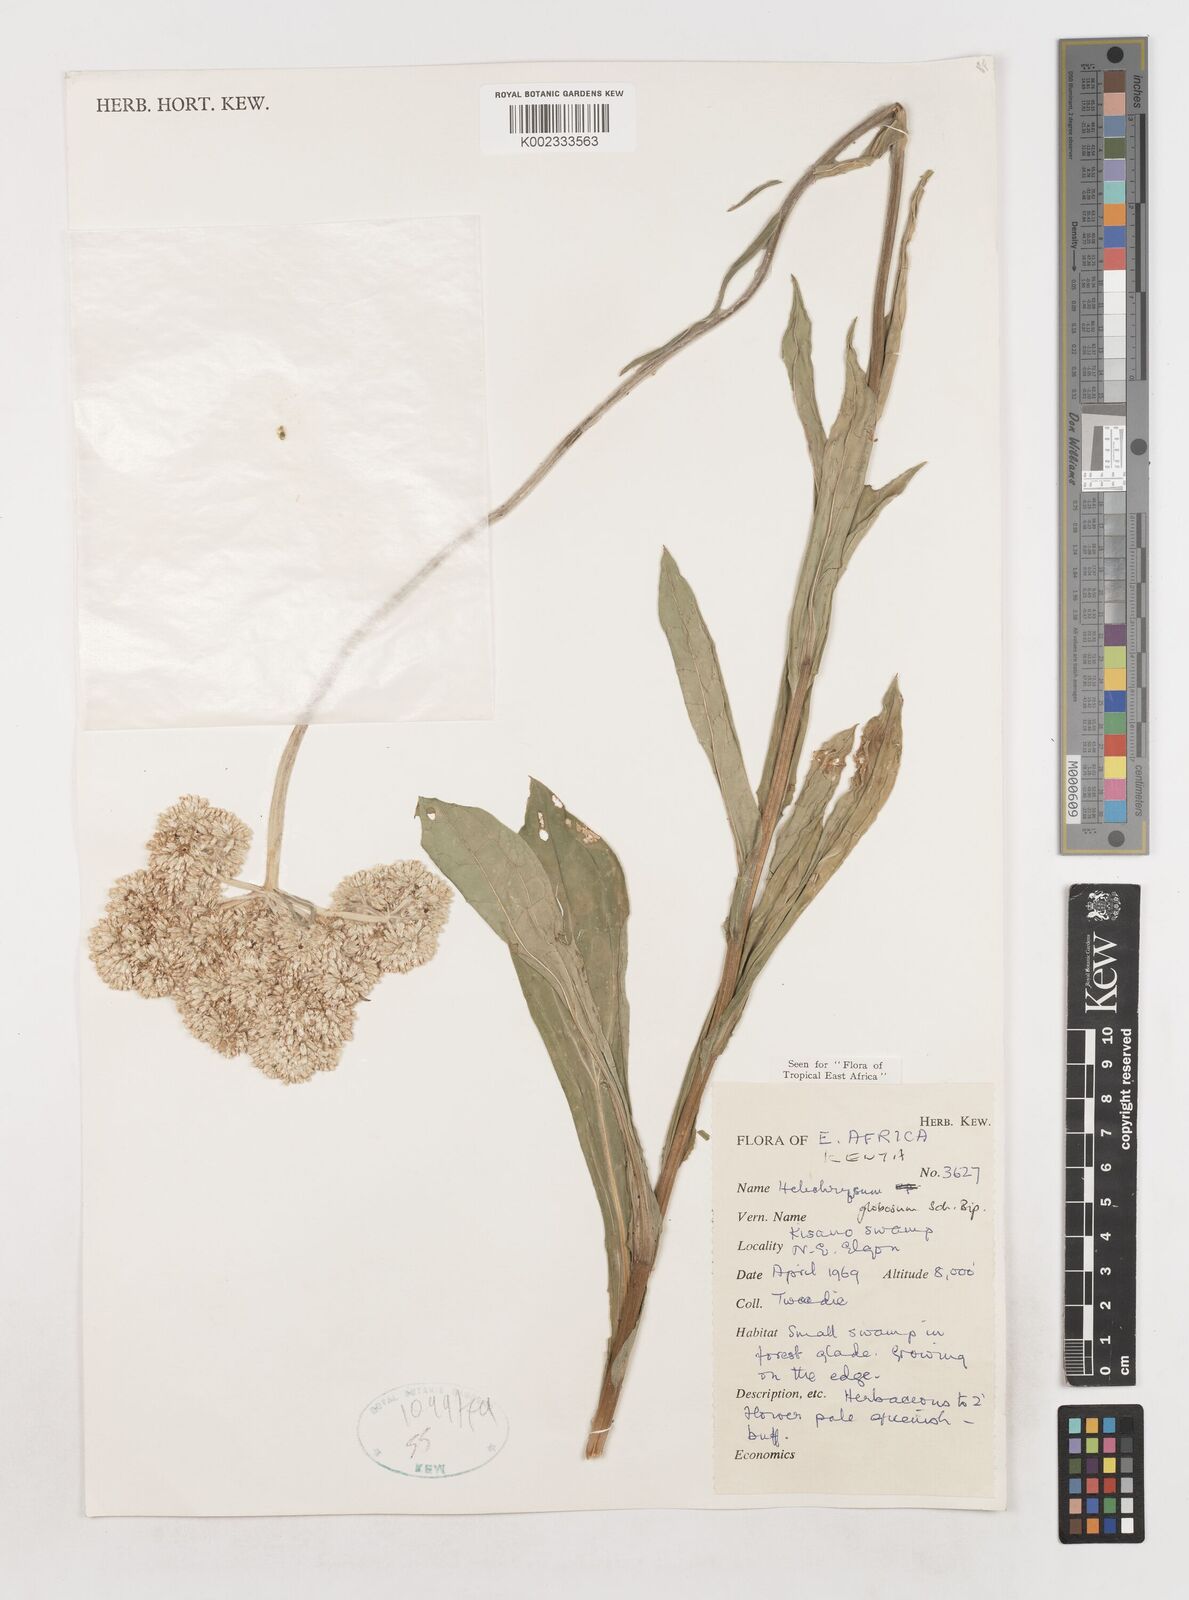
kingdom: Plantae
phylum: Tracheophyta
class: Magnoliopsida
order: Asterales
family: Asteraceae
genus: Helichrysum
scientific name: Helichrysum globosum
